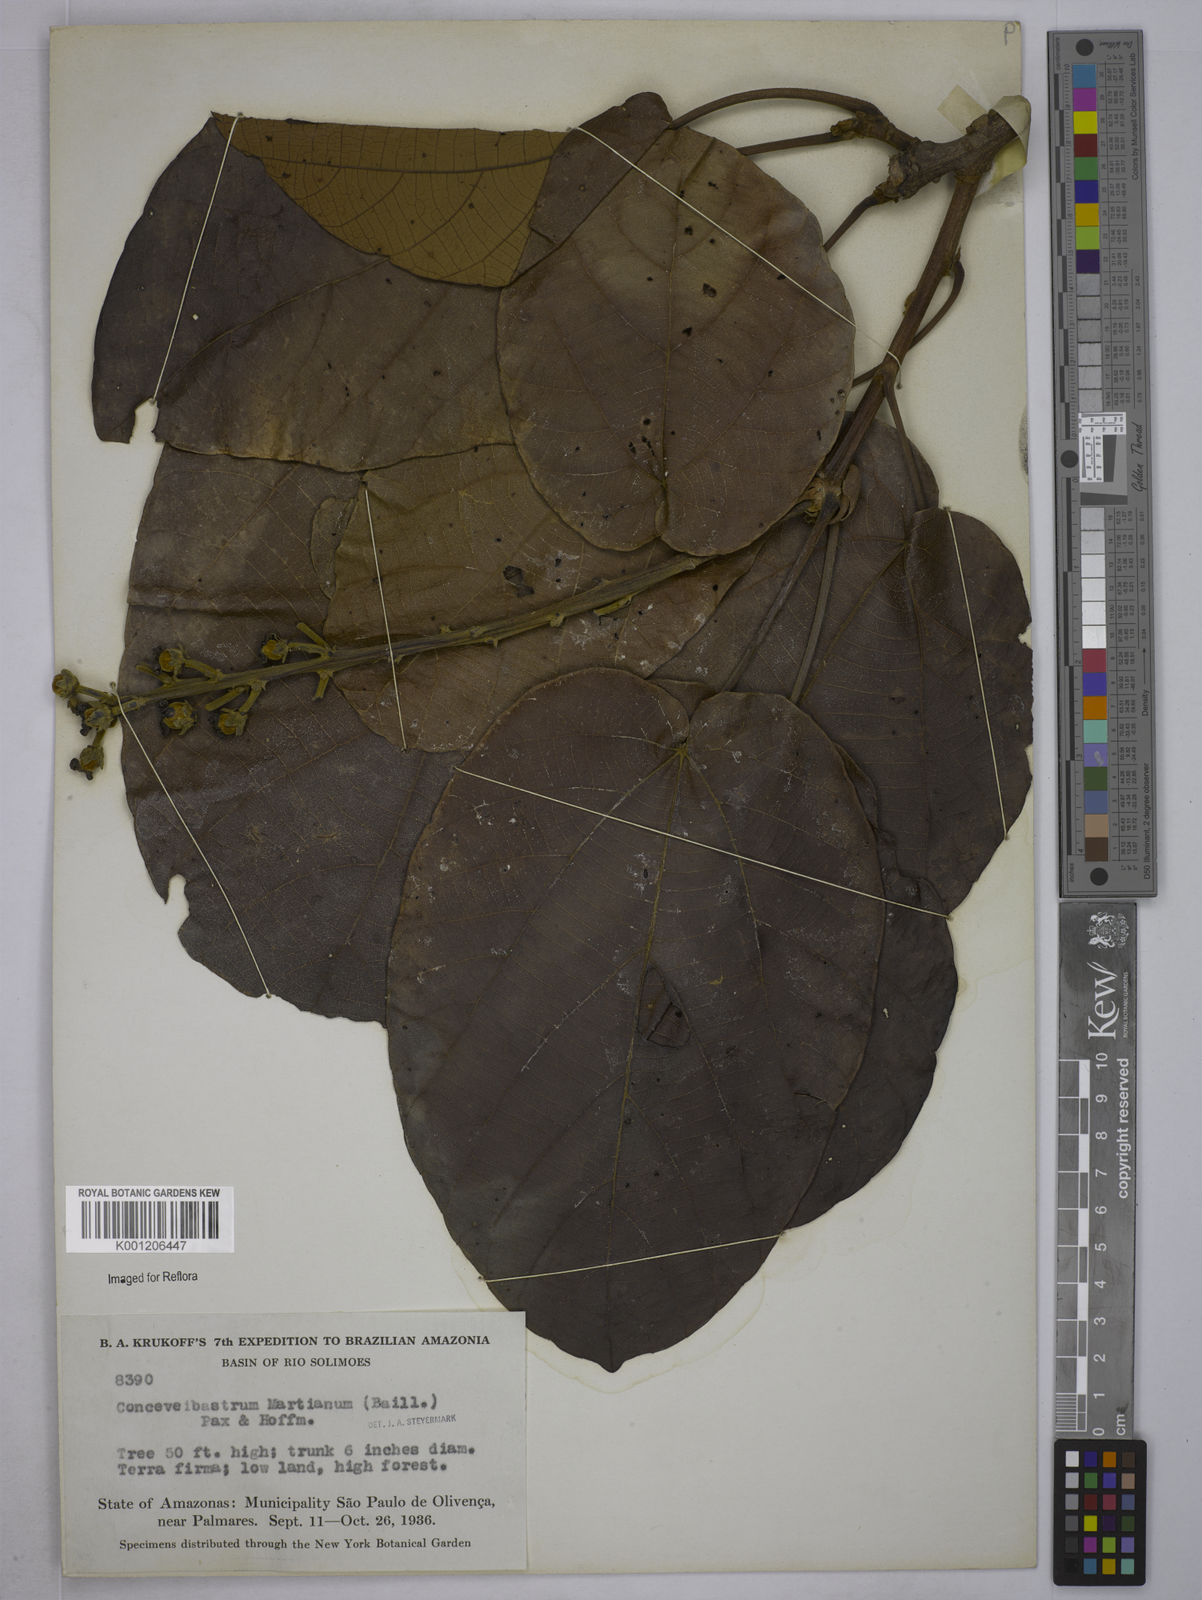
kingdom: Plantae
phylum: Tracheophyta
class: Magnoliopsida
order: Malpighiales
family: Euphorbiaceae
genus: Conceveiba
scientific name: Conceveiba martiana
